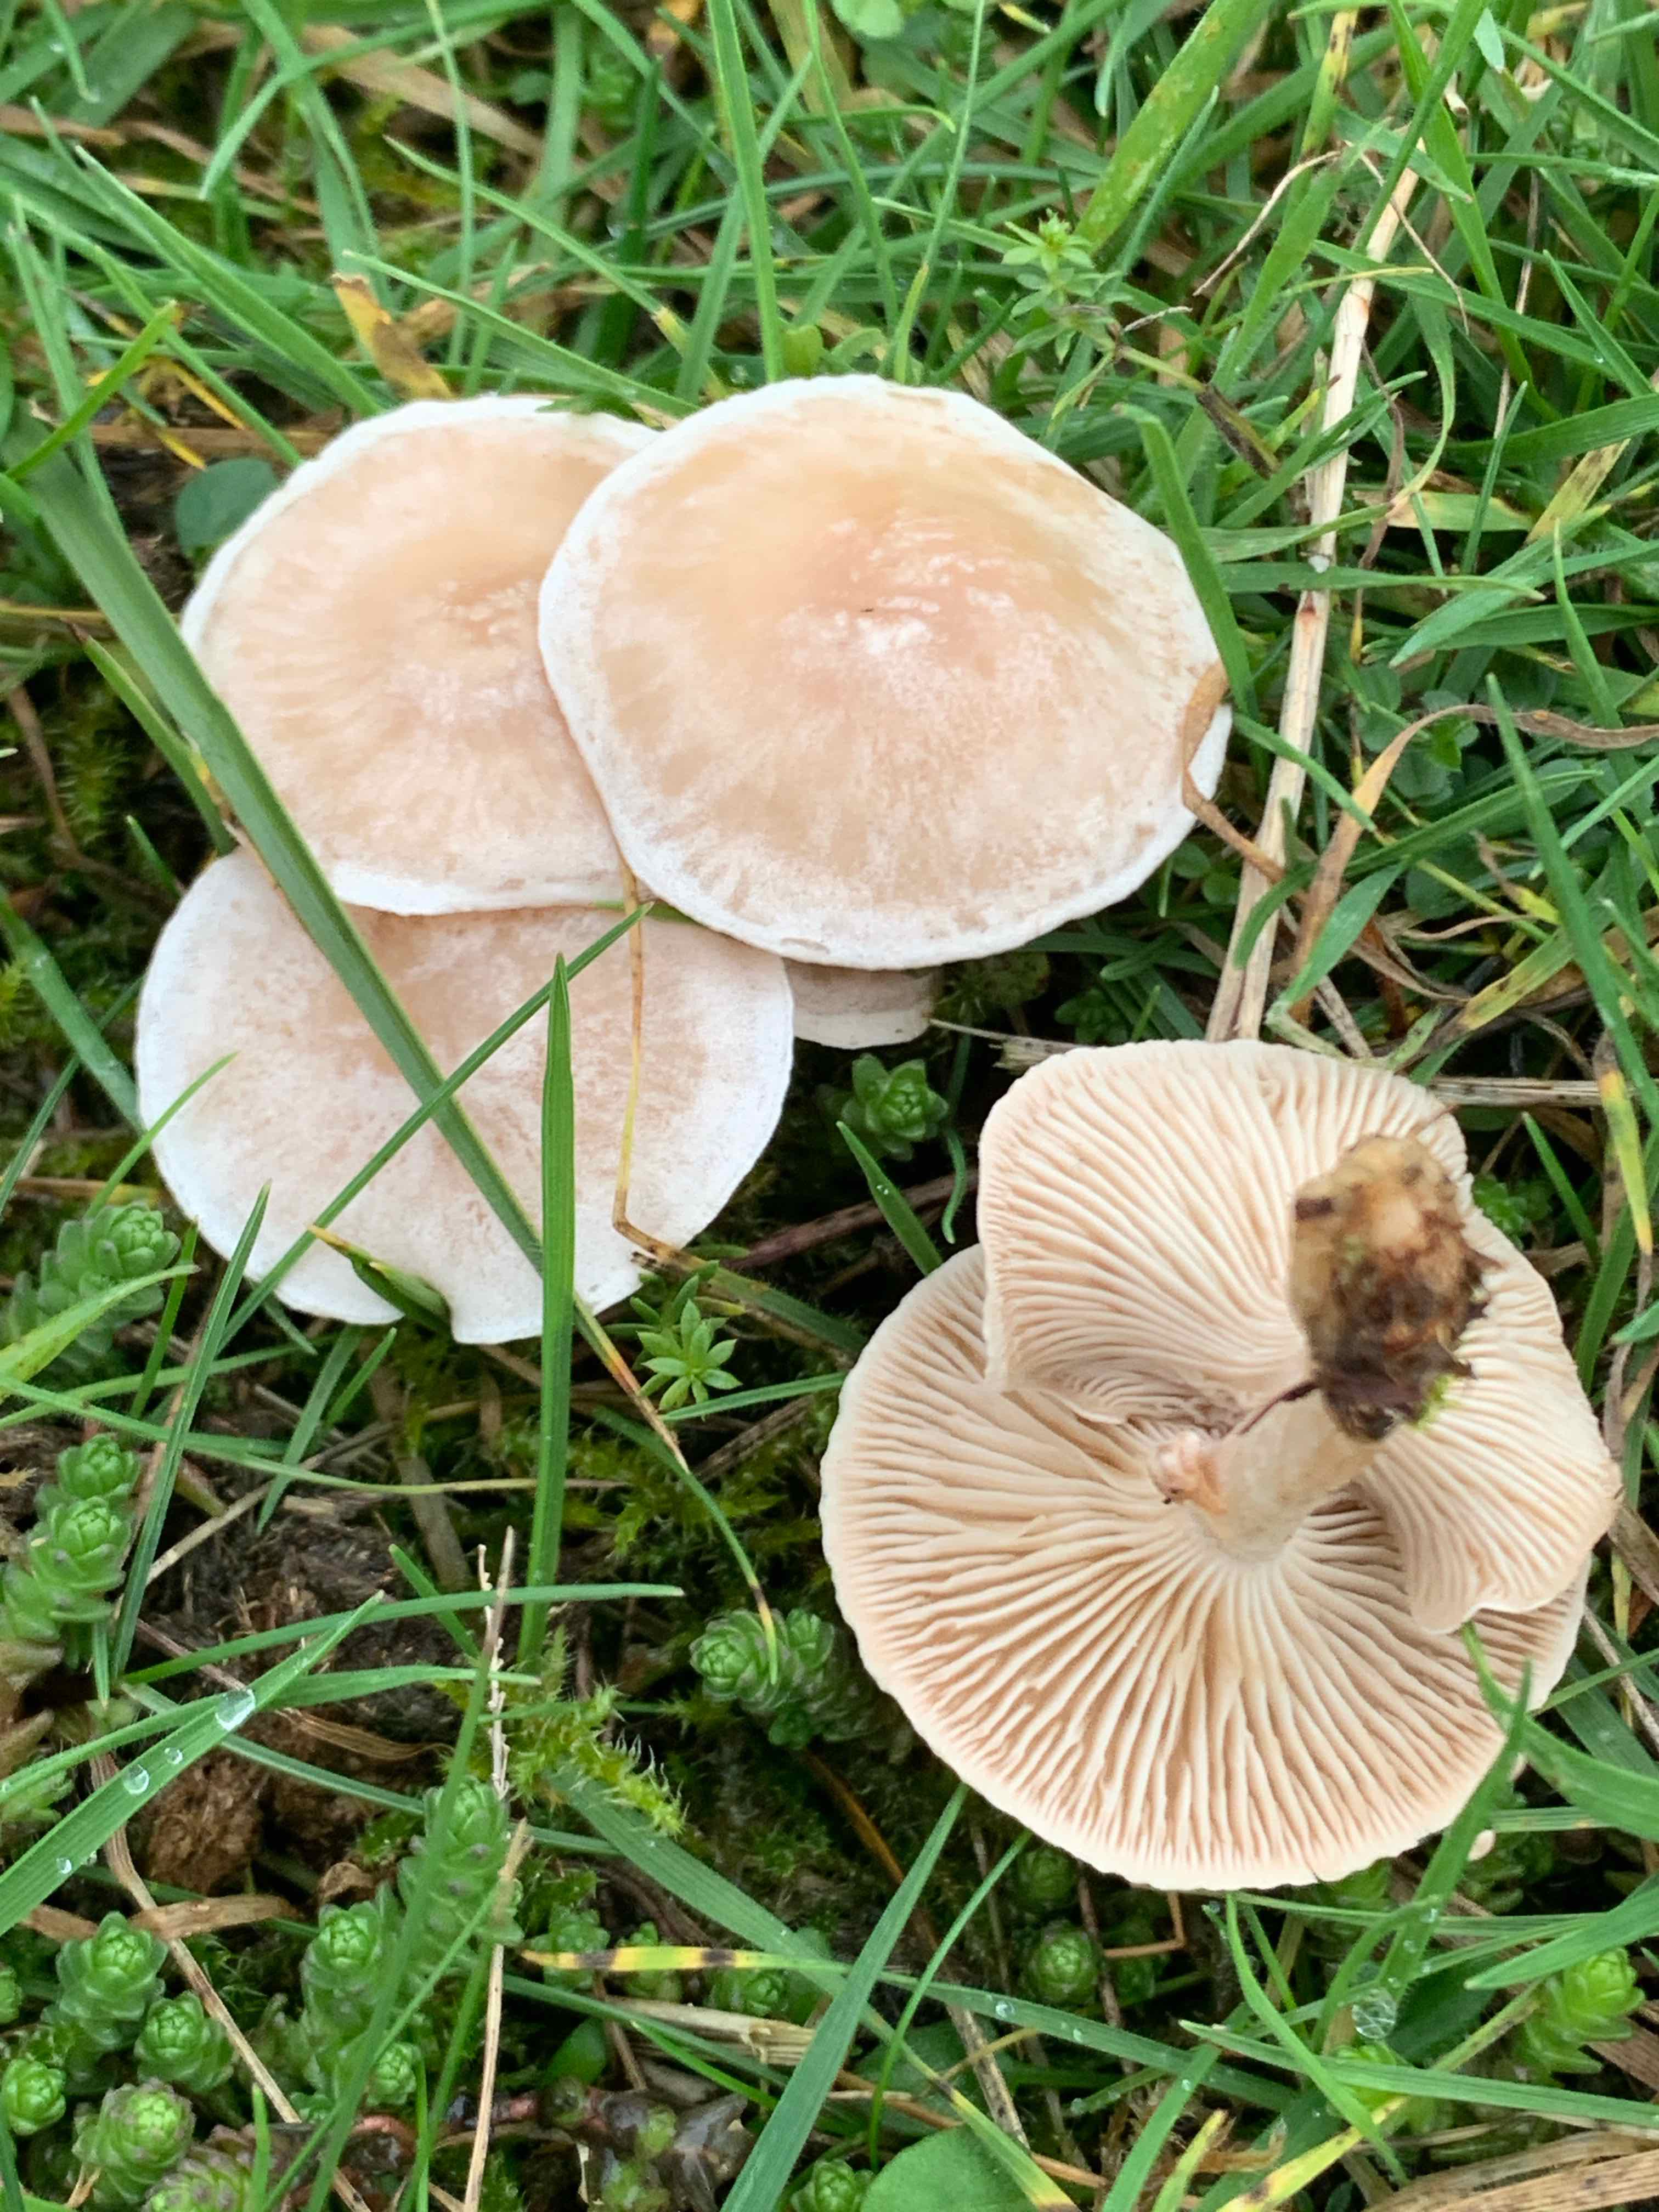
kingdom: Fungi
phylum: Basidiomycota
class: Agaricomycetes
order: Agaricales
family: Tricholomataceae
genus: Clitocybe
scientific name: Clitocybe rivulosa
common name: eng-tragthat
